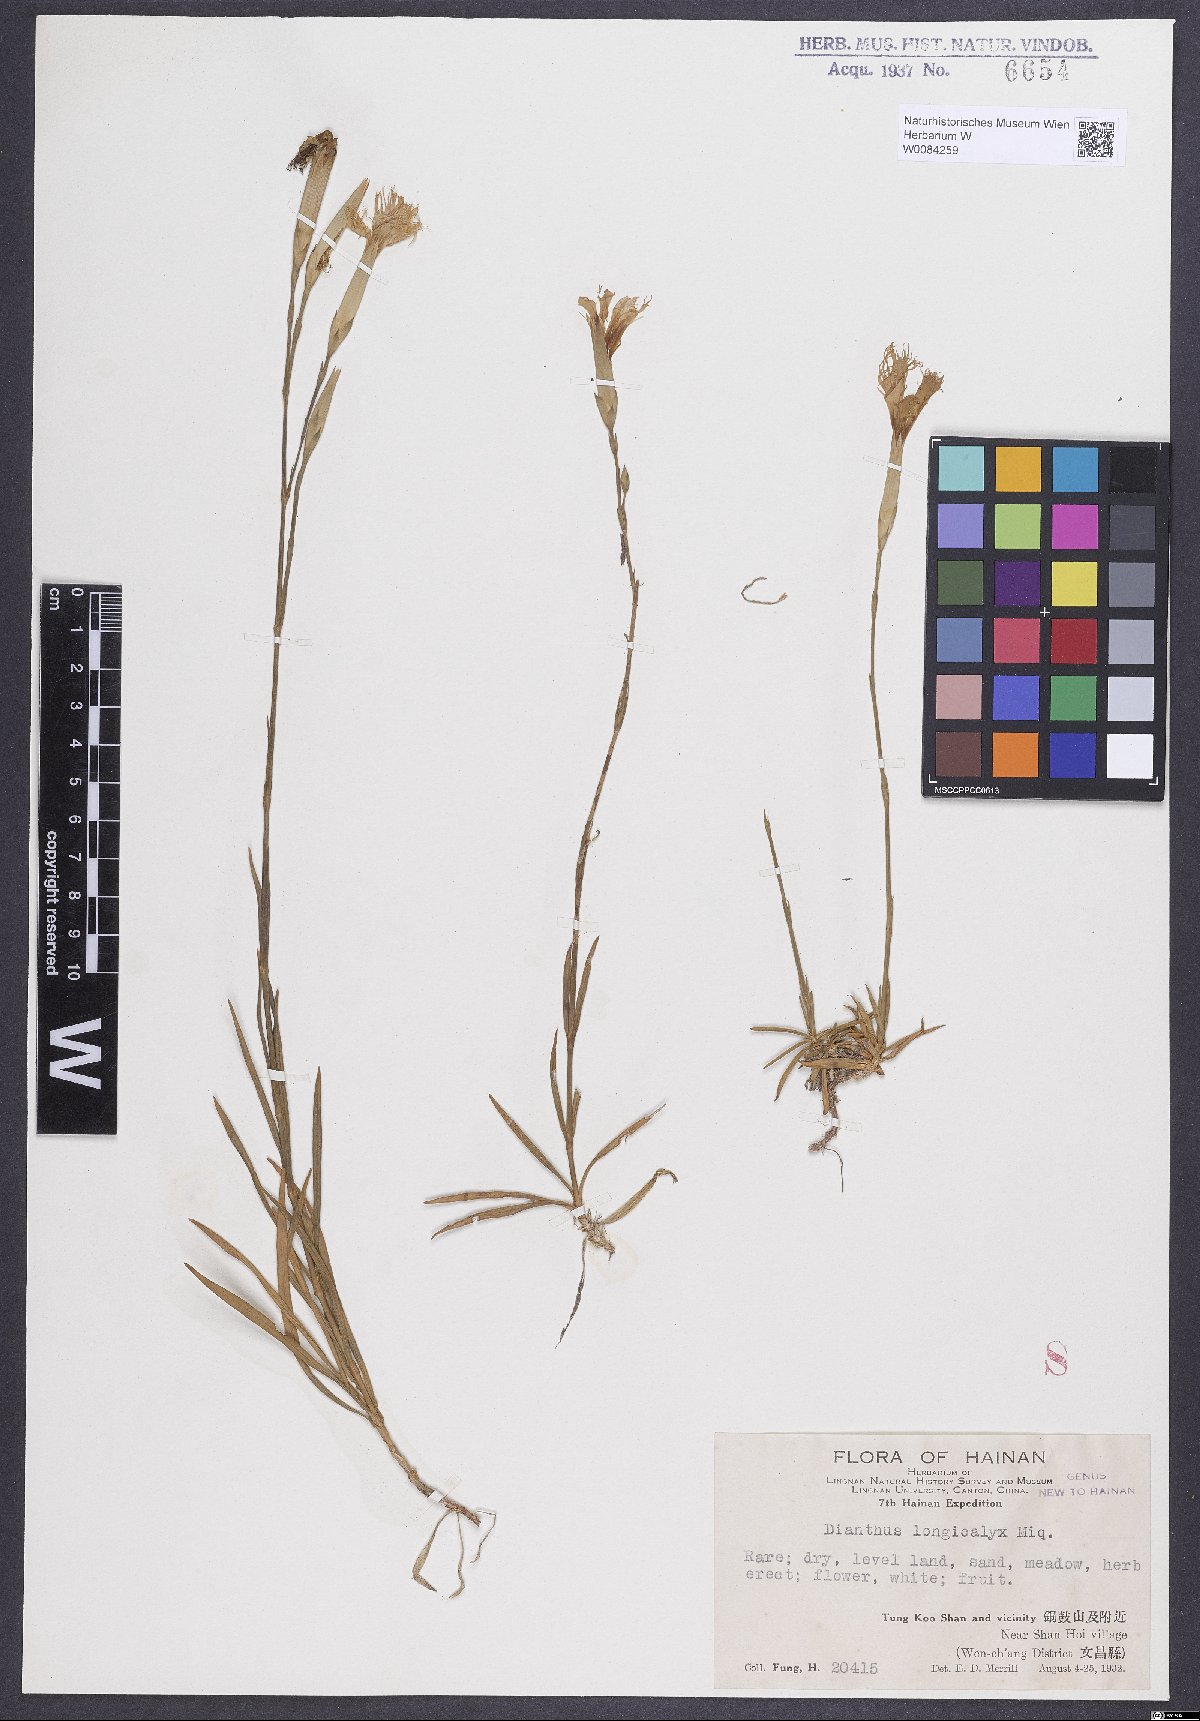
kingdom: Plantae
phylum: Tracheophyta
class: Magnoliopsida
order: Caryophyllales
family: Caryophyllaceae
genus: Dianthus
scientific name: Dianthus longicalyx
